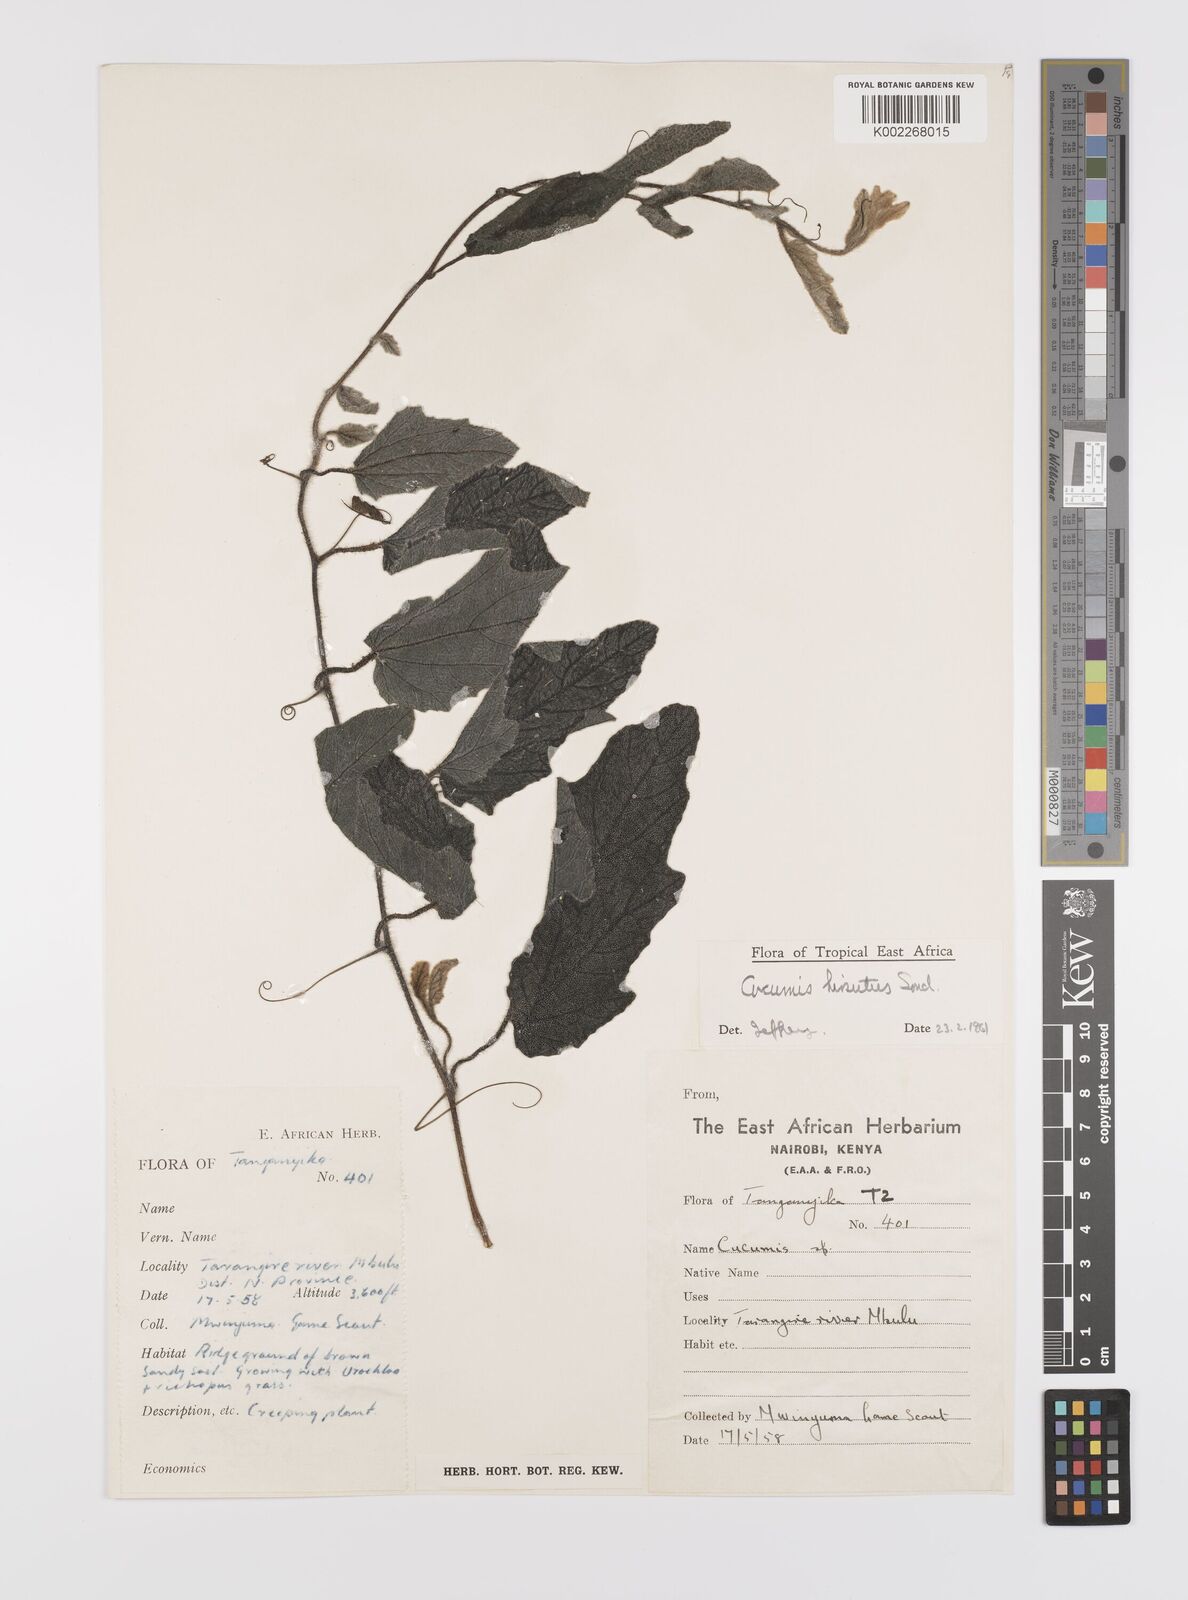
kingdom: Plantae
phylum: Tracheophyta
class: Magnoliopsida
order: Cucurbitales
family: Cucurbitaceae
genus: Cucumis
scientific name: Cucumis hirsutus
